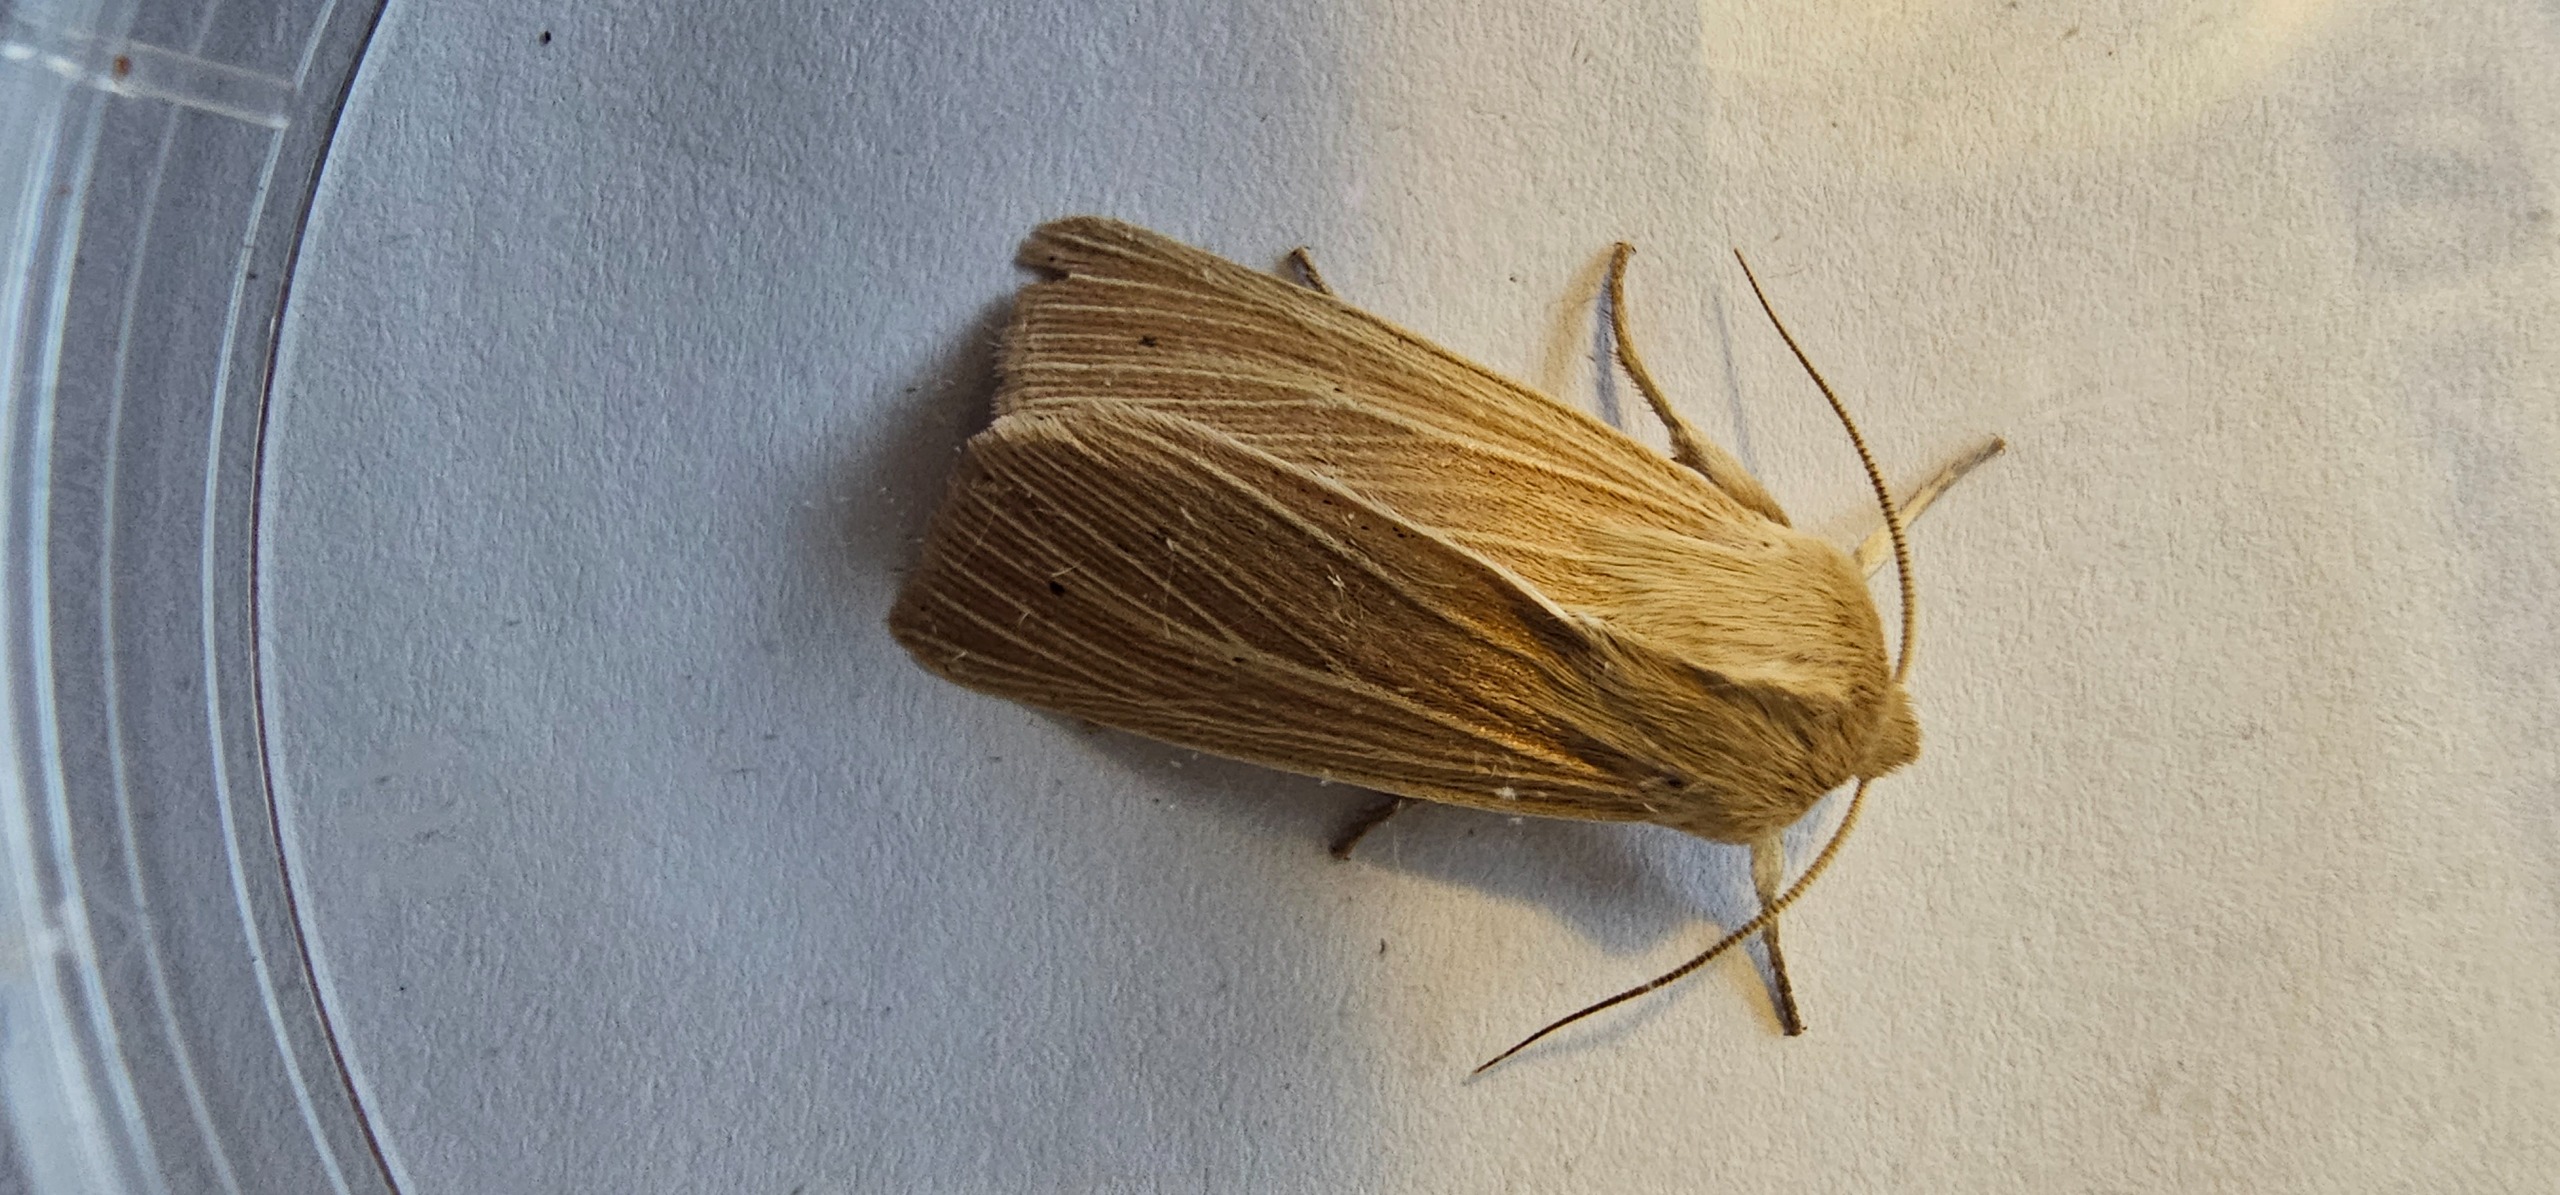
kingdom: Animalia
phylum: Arthropoda
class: Insecta
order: Lepidoptera
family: Noctuidae
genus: Mythimna
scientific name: Mythimna pallens
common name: Halmugle
